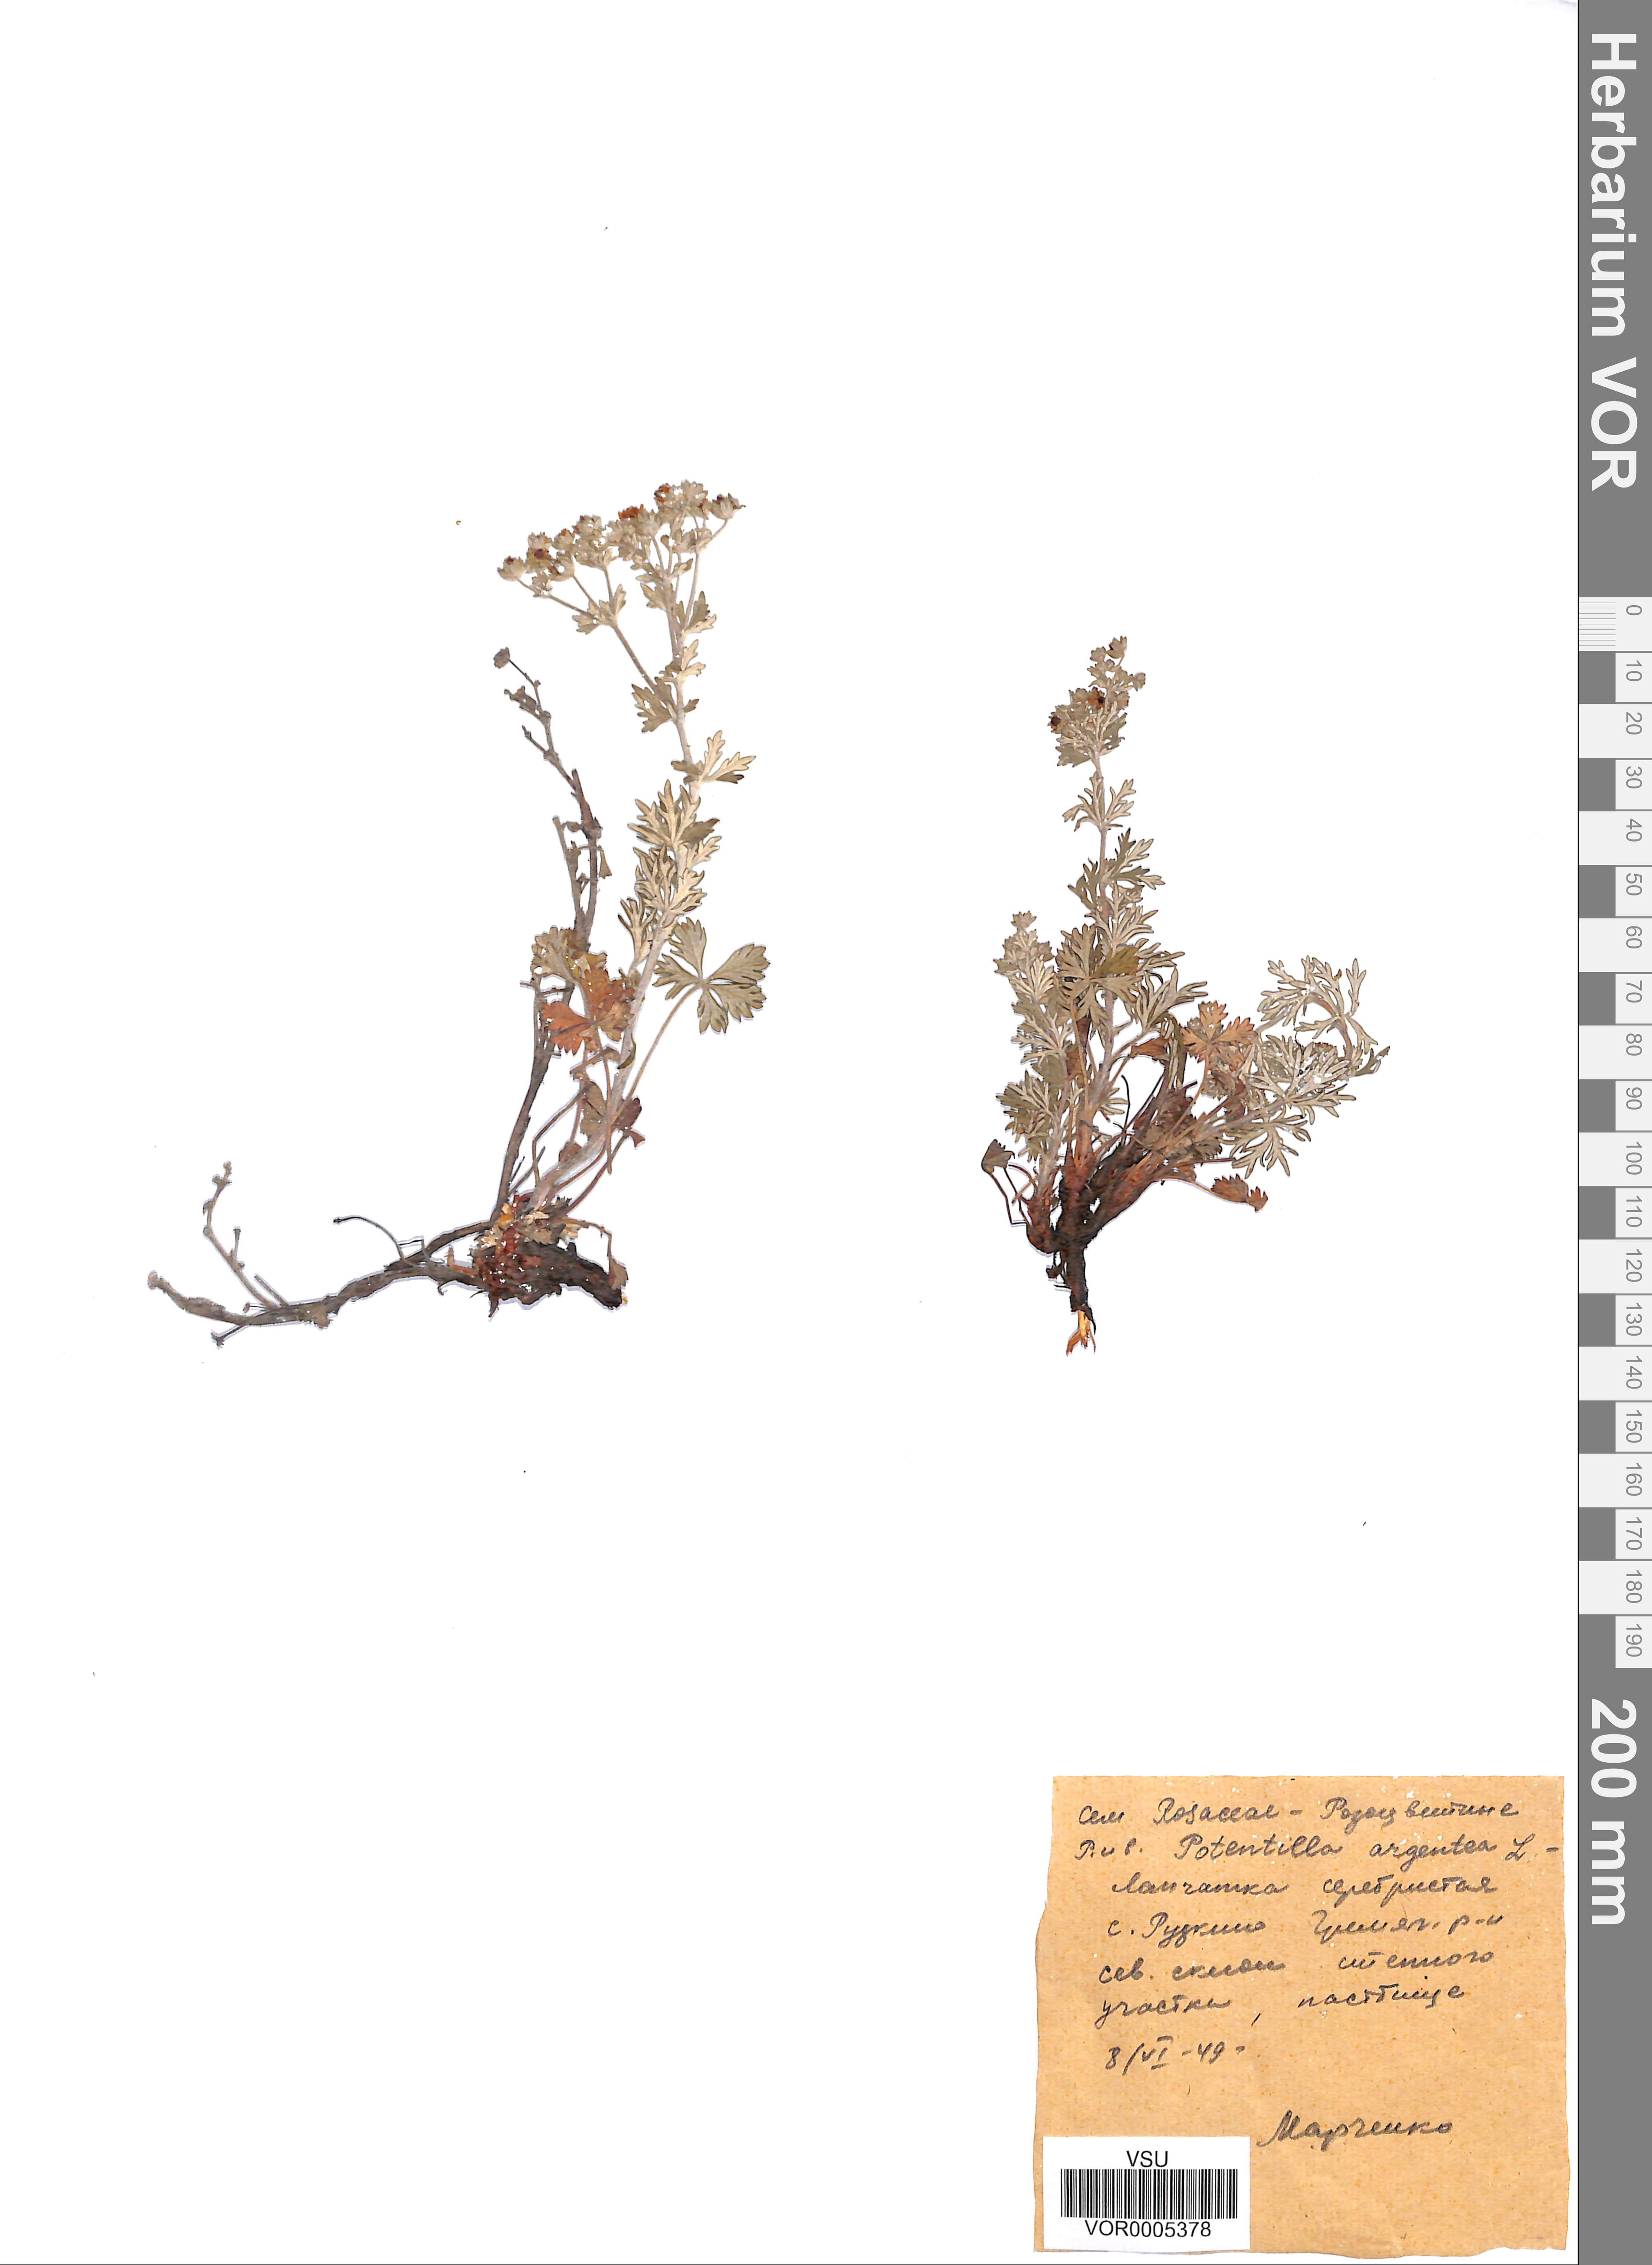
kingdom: Plantae
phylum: Tracheophyta
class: Magnoliopsida
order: Rosales
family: Rosaceae
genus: Potentilla
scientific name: Potentilla argentea
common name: Hoary cinquefoil
